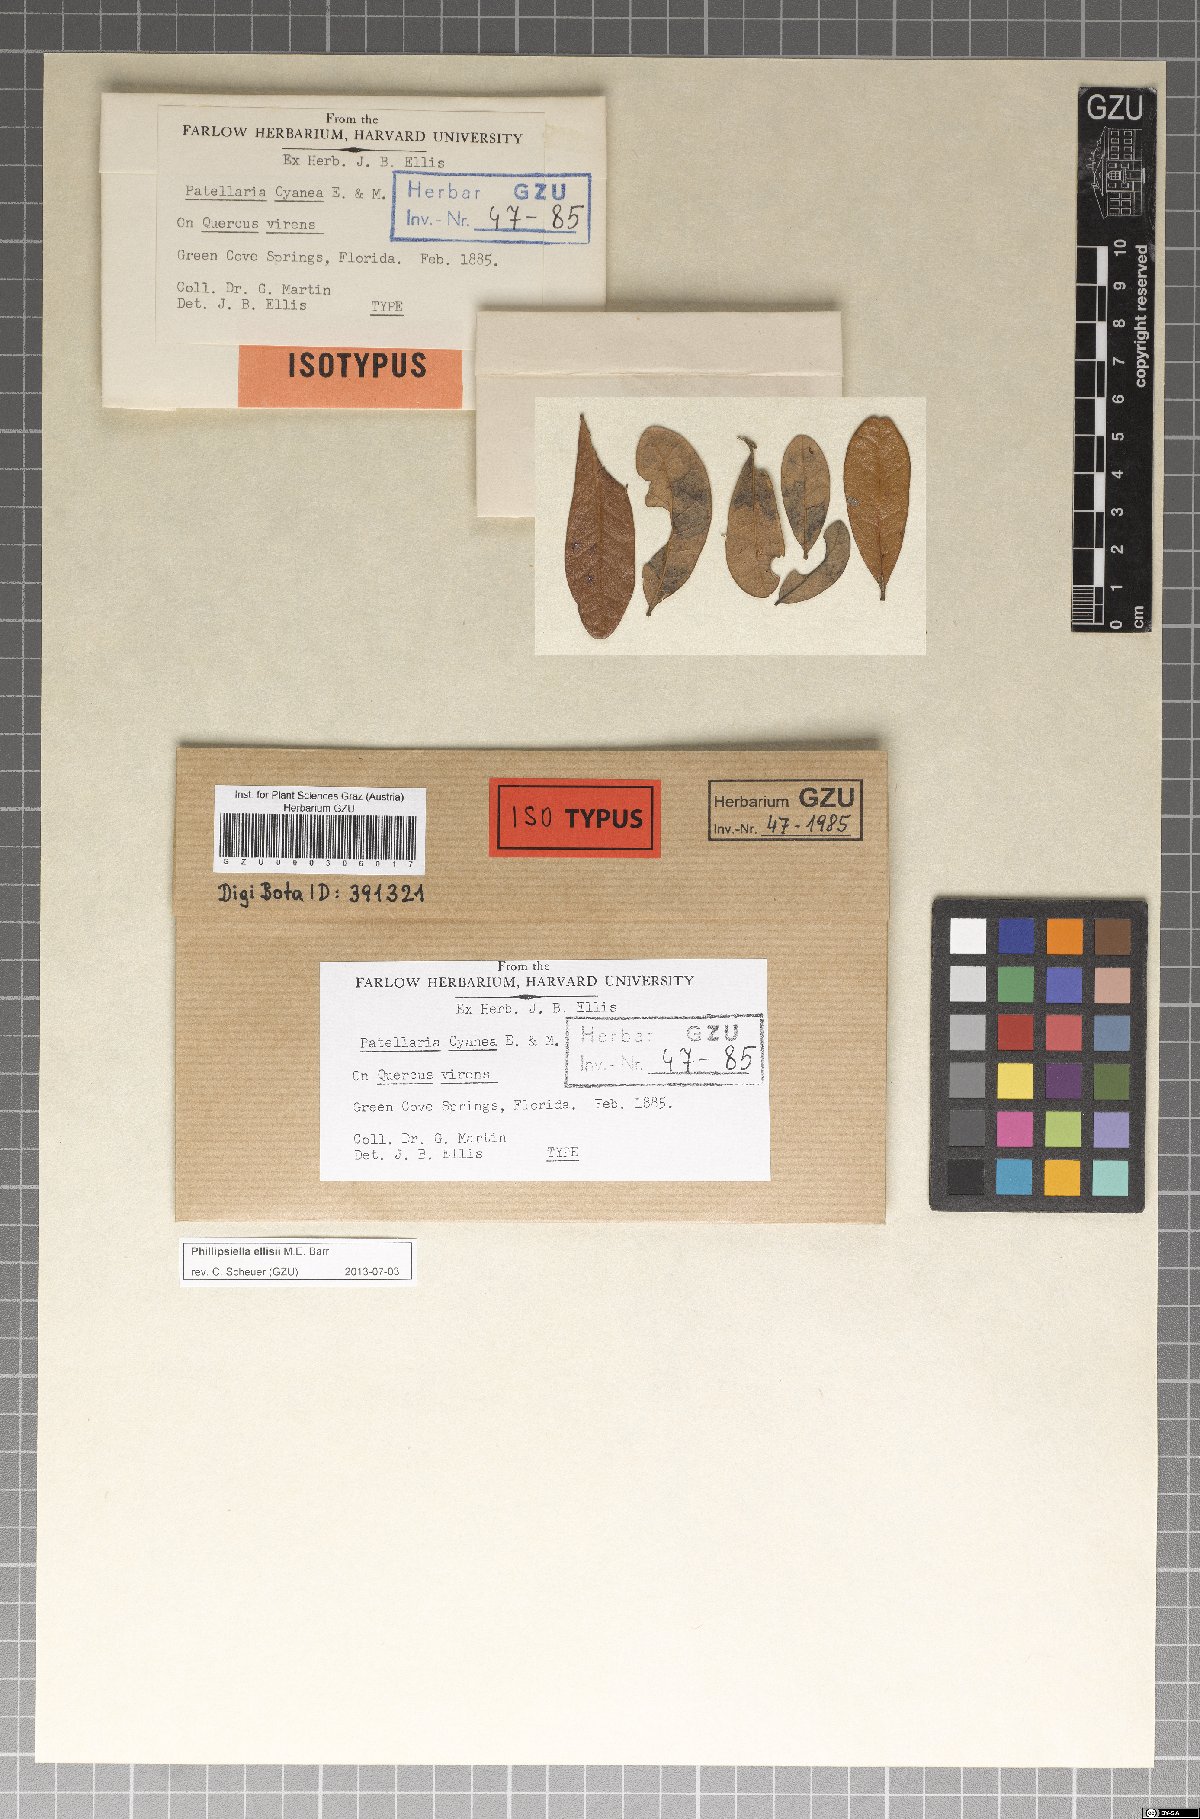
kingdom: Fungi
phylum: Ascomycota
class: Dothideomycetes
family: Saccardiaceae
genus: Phillipsiella
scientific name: Phillipsiella ellisii
